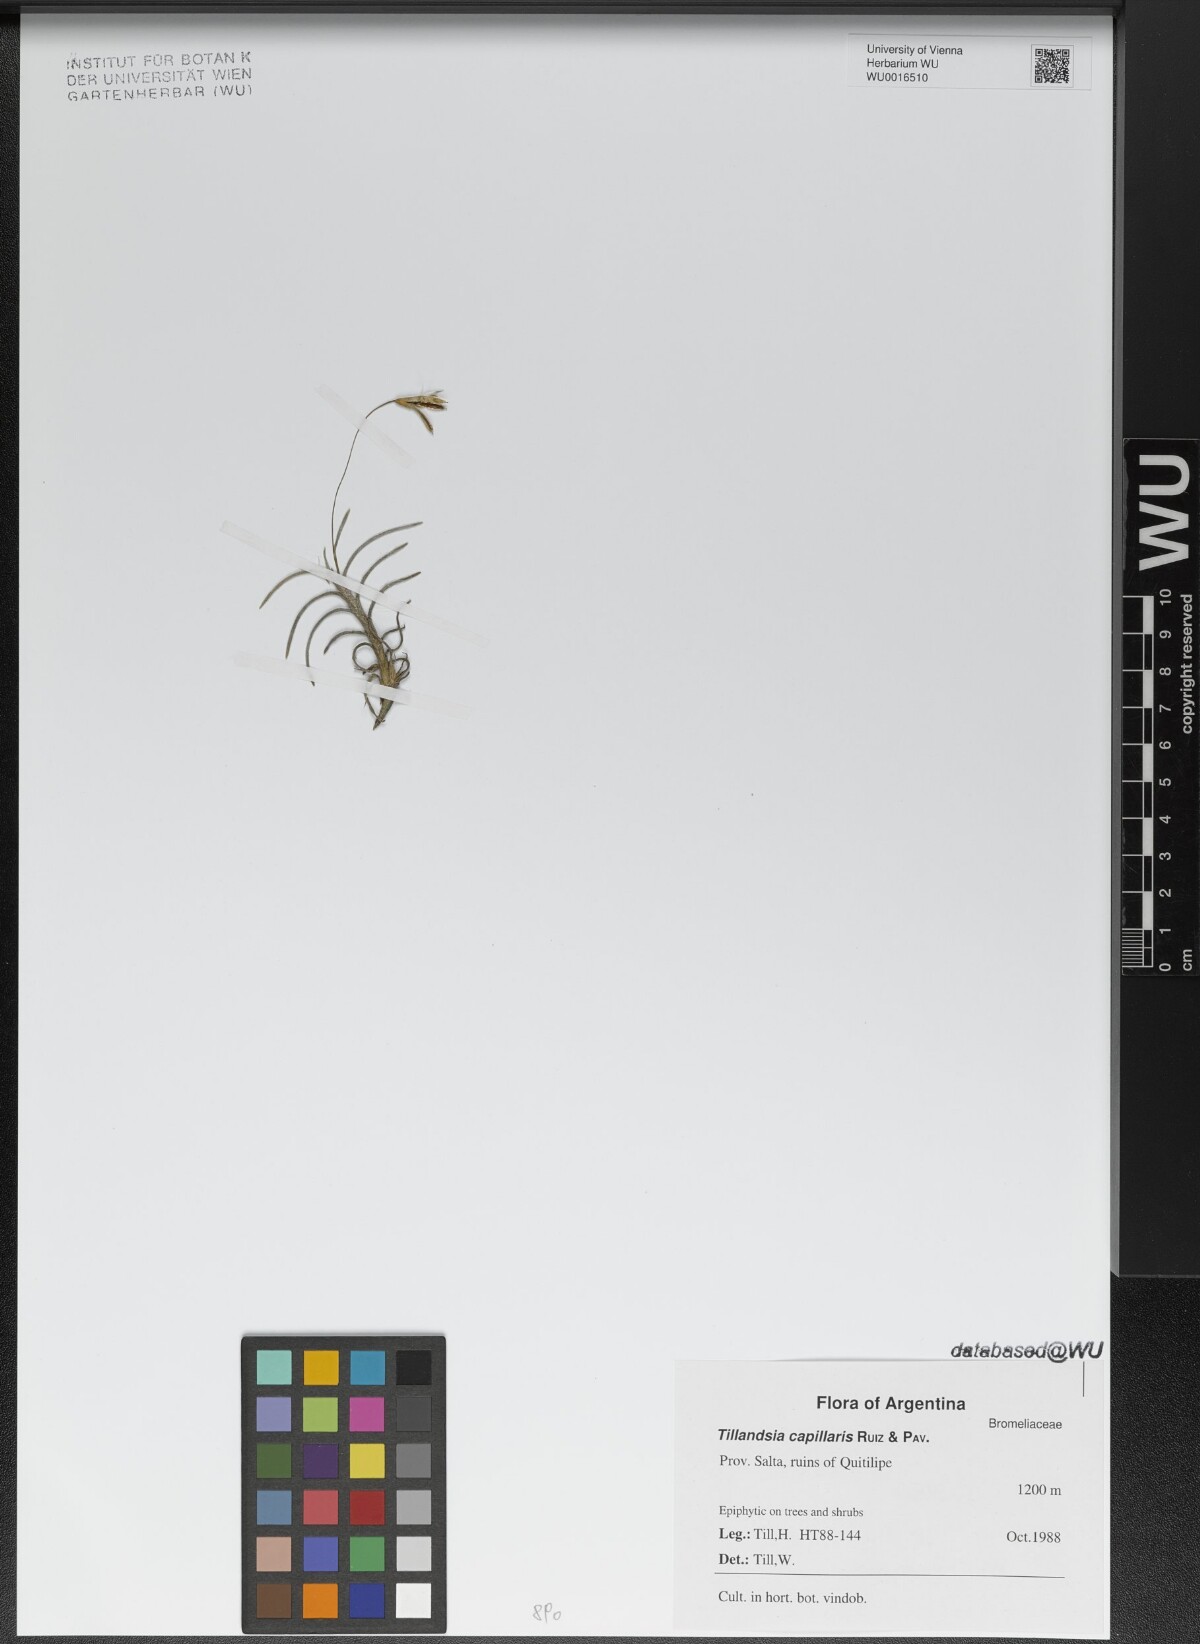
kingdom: Plantae
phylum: Tracheophyta
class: Liliopsida
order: Poales
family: Bromeliaceae
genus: Tillandsia
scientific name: Tillandsia capillaris
